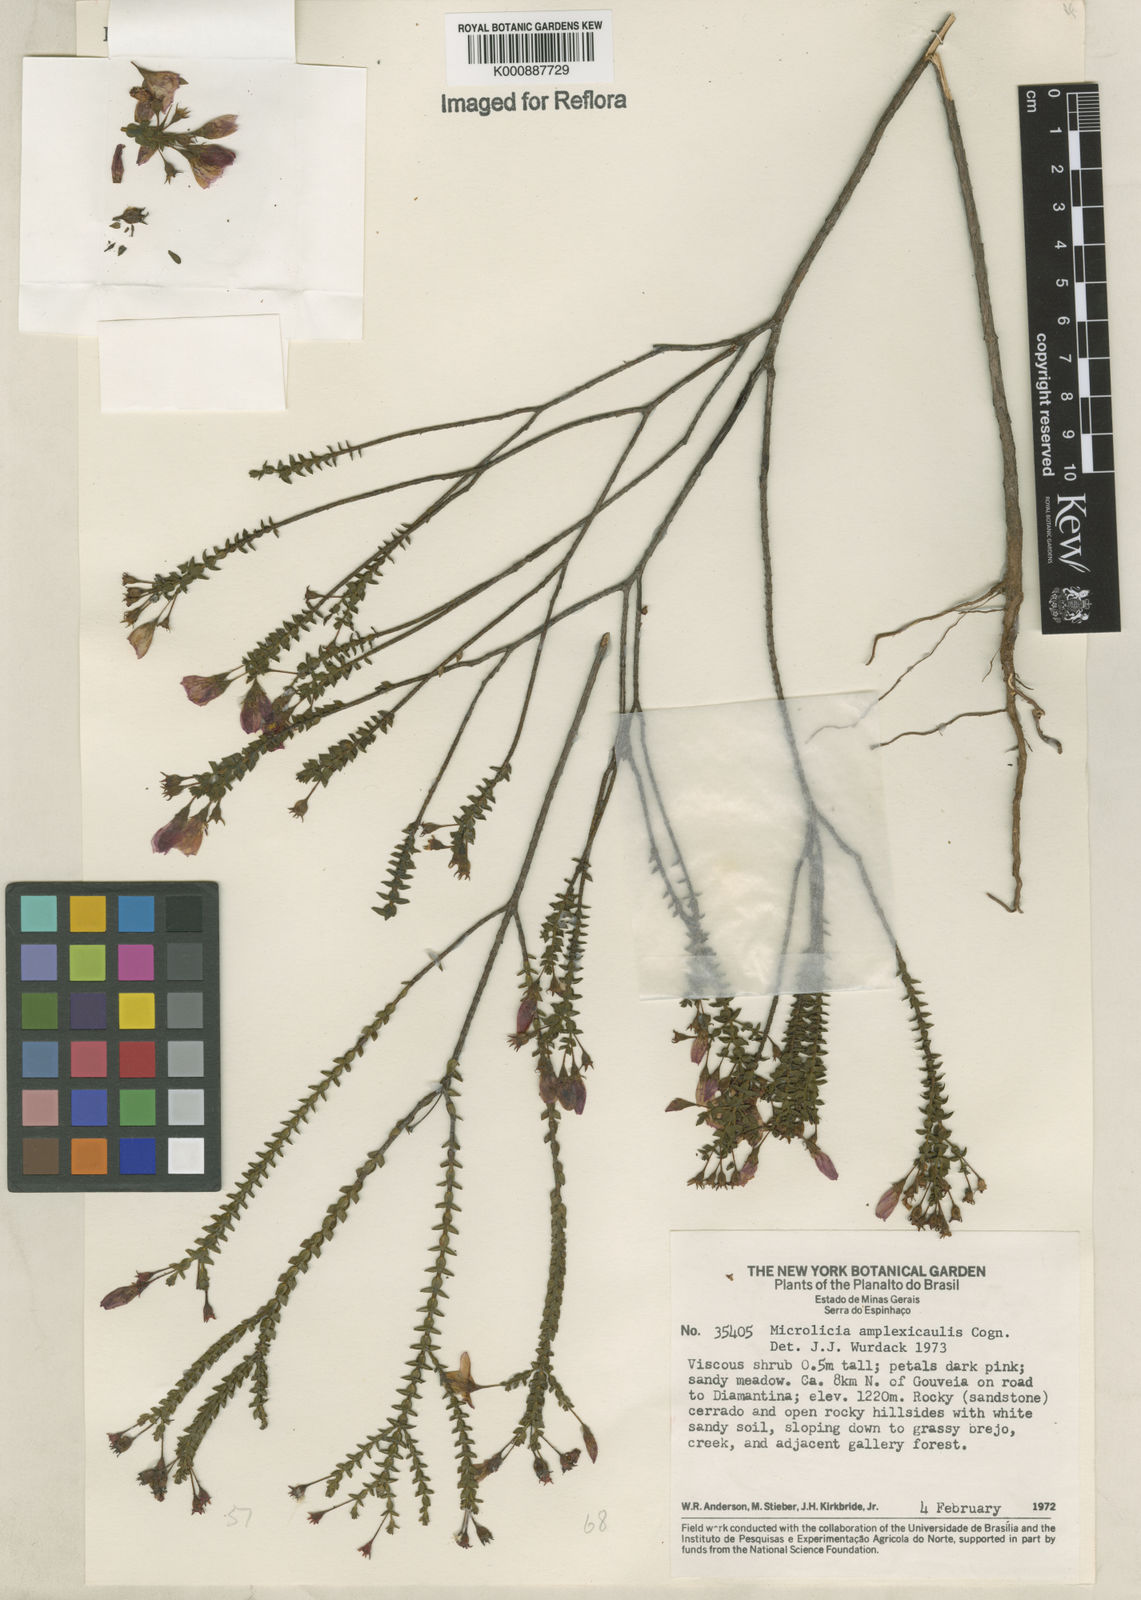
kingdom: Plantae
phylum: Tracheophyta
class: Magnoliopsida
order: Myrtales
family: Melastomataceae
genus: Microlicia
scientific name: Microlicia amplexicaulis
